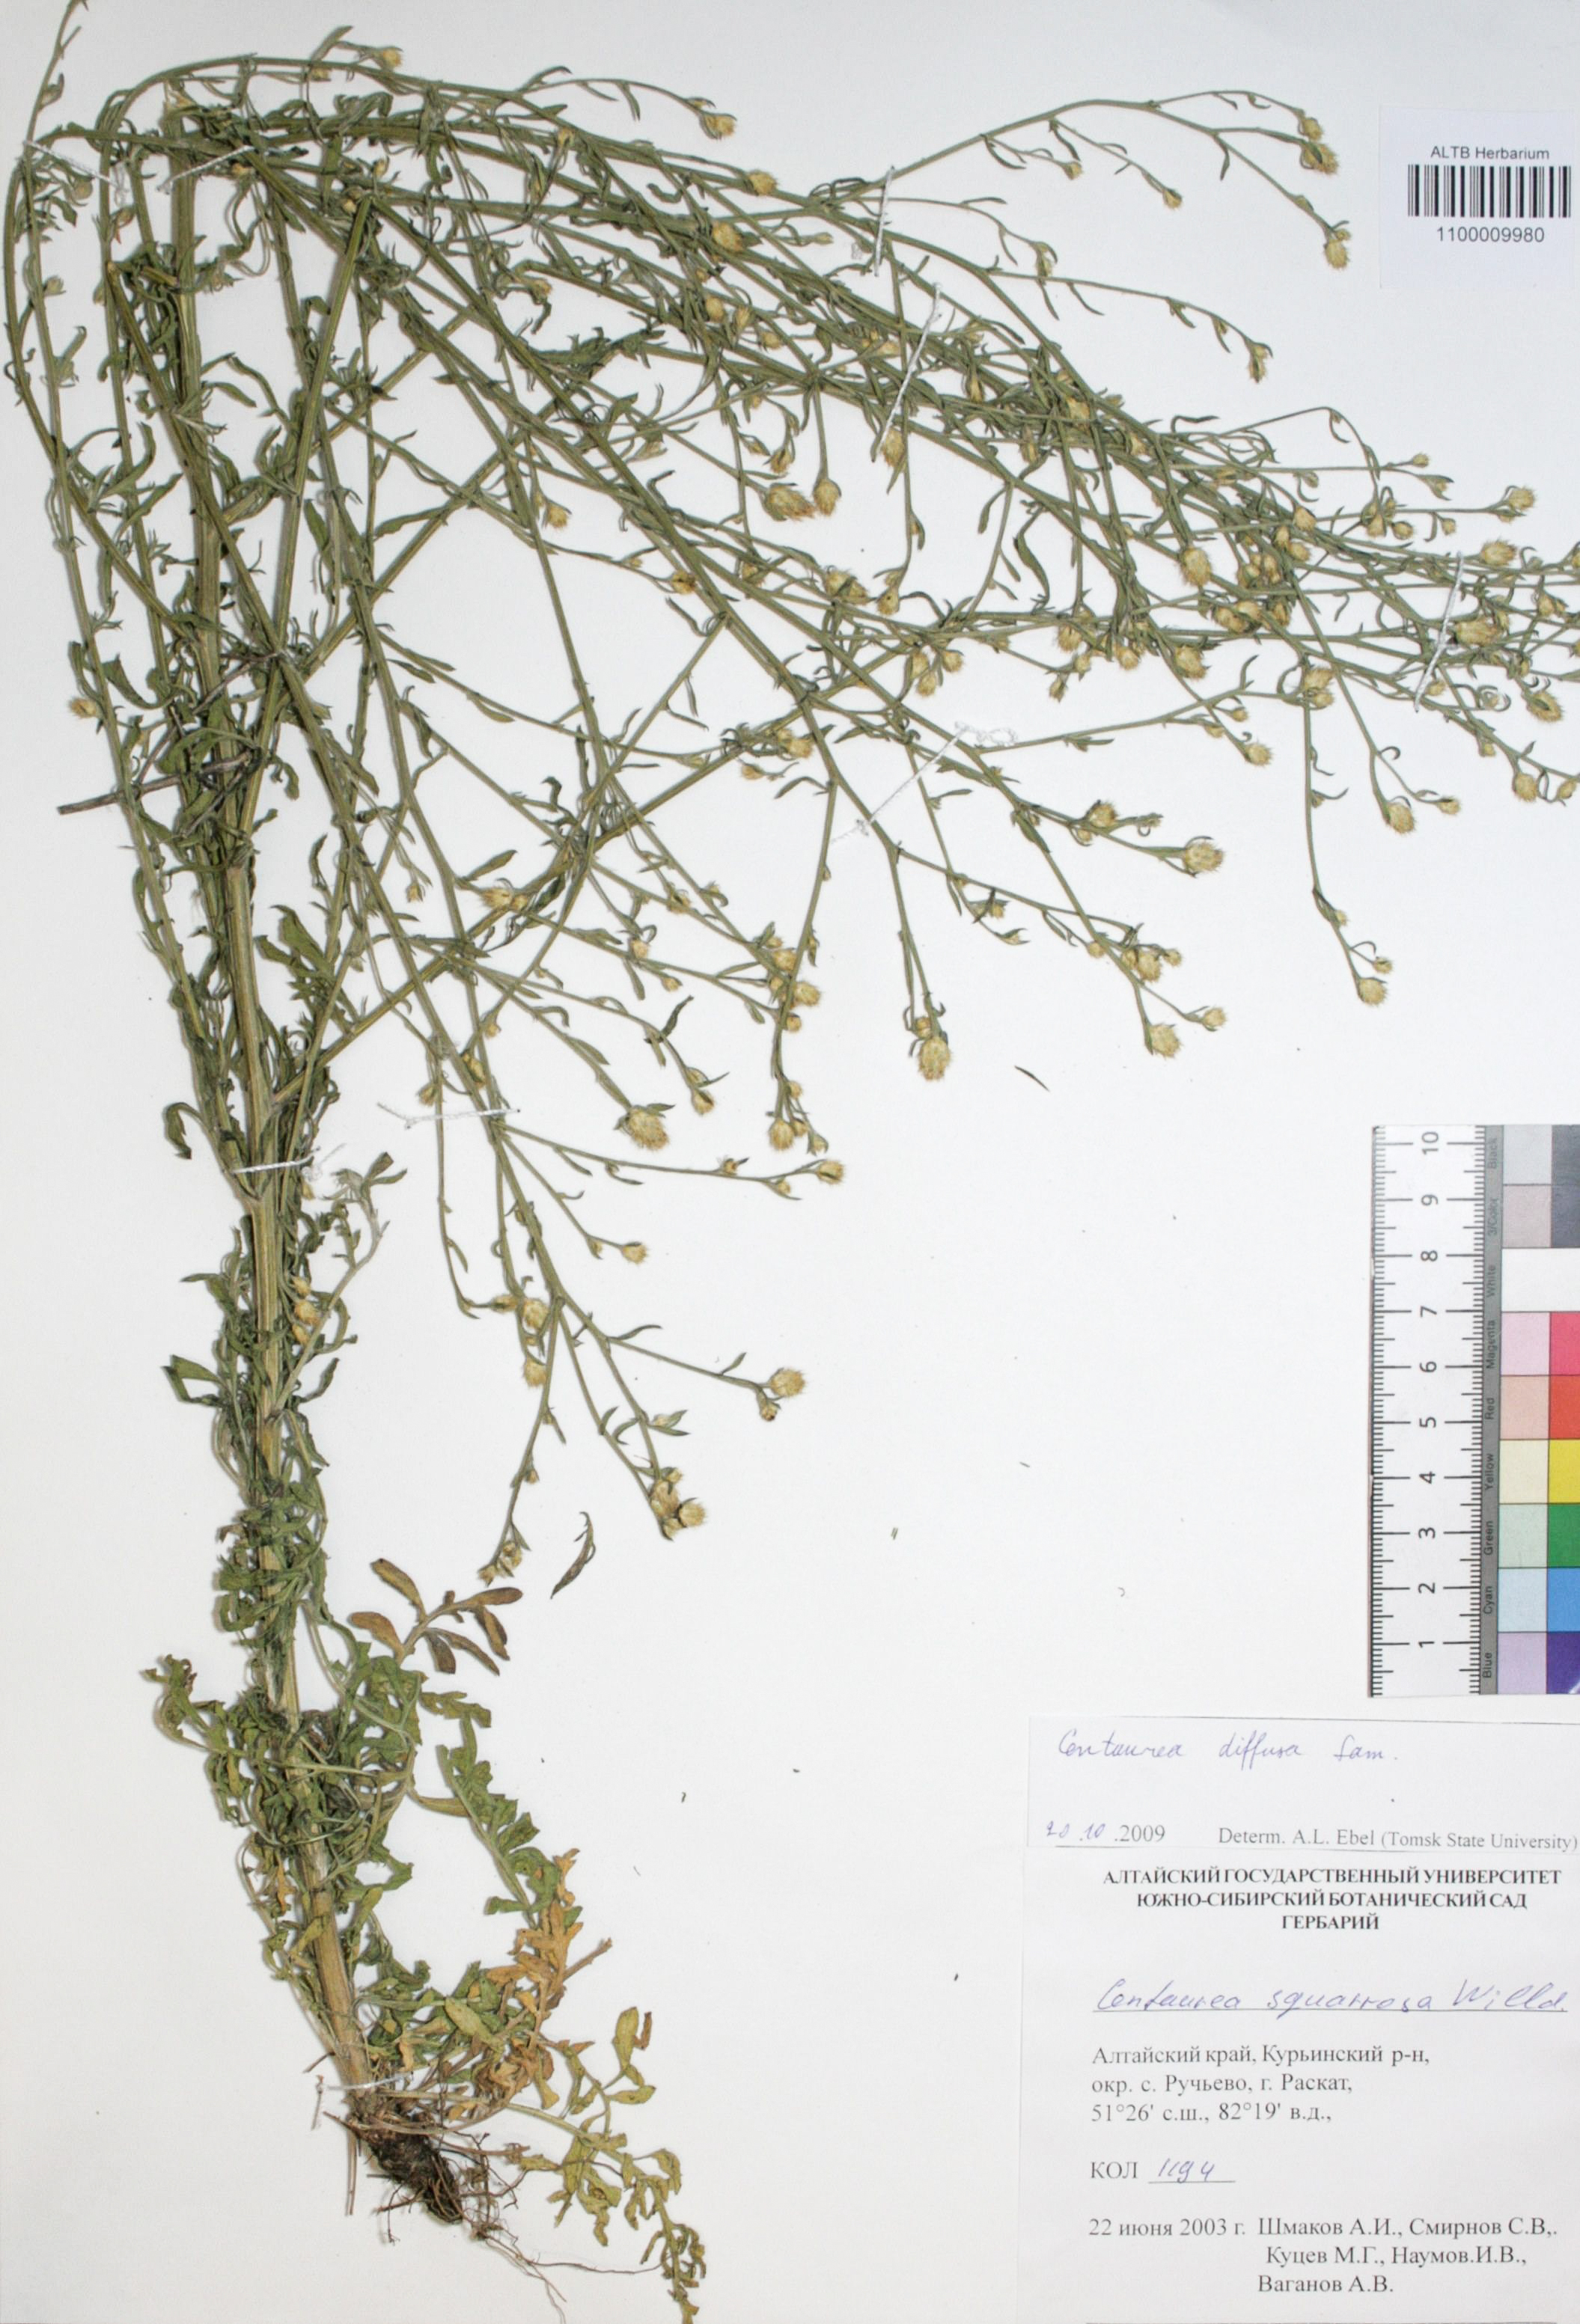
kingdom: Plantae
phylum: Tracheophyta
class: Magnoliopsida
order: Asterales
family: Asteraceae
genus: Centaurea
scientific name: Centaurea virgata
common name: Squarrose knapweed
